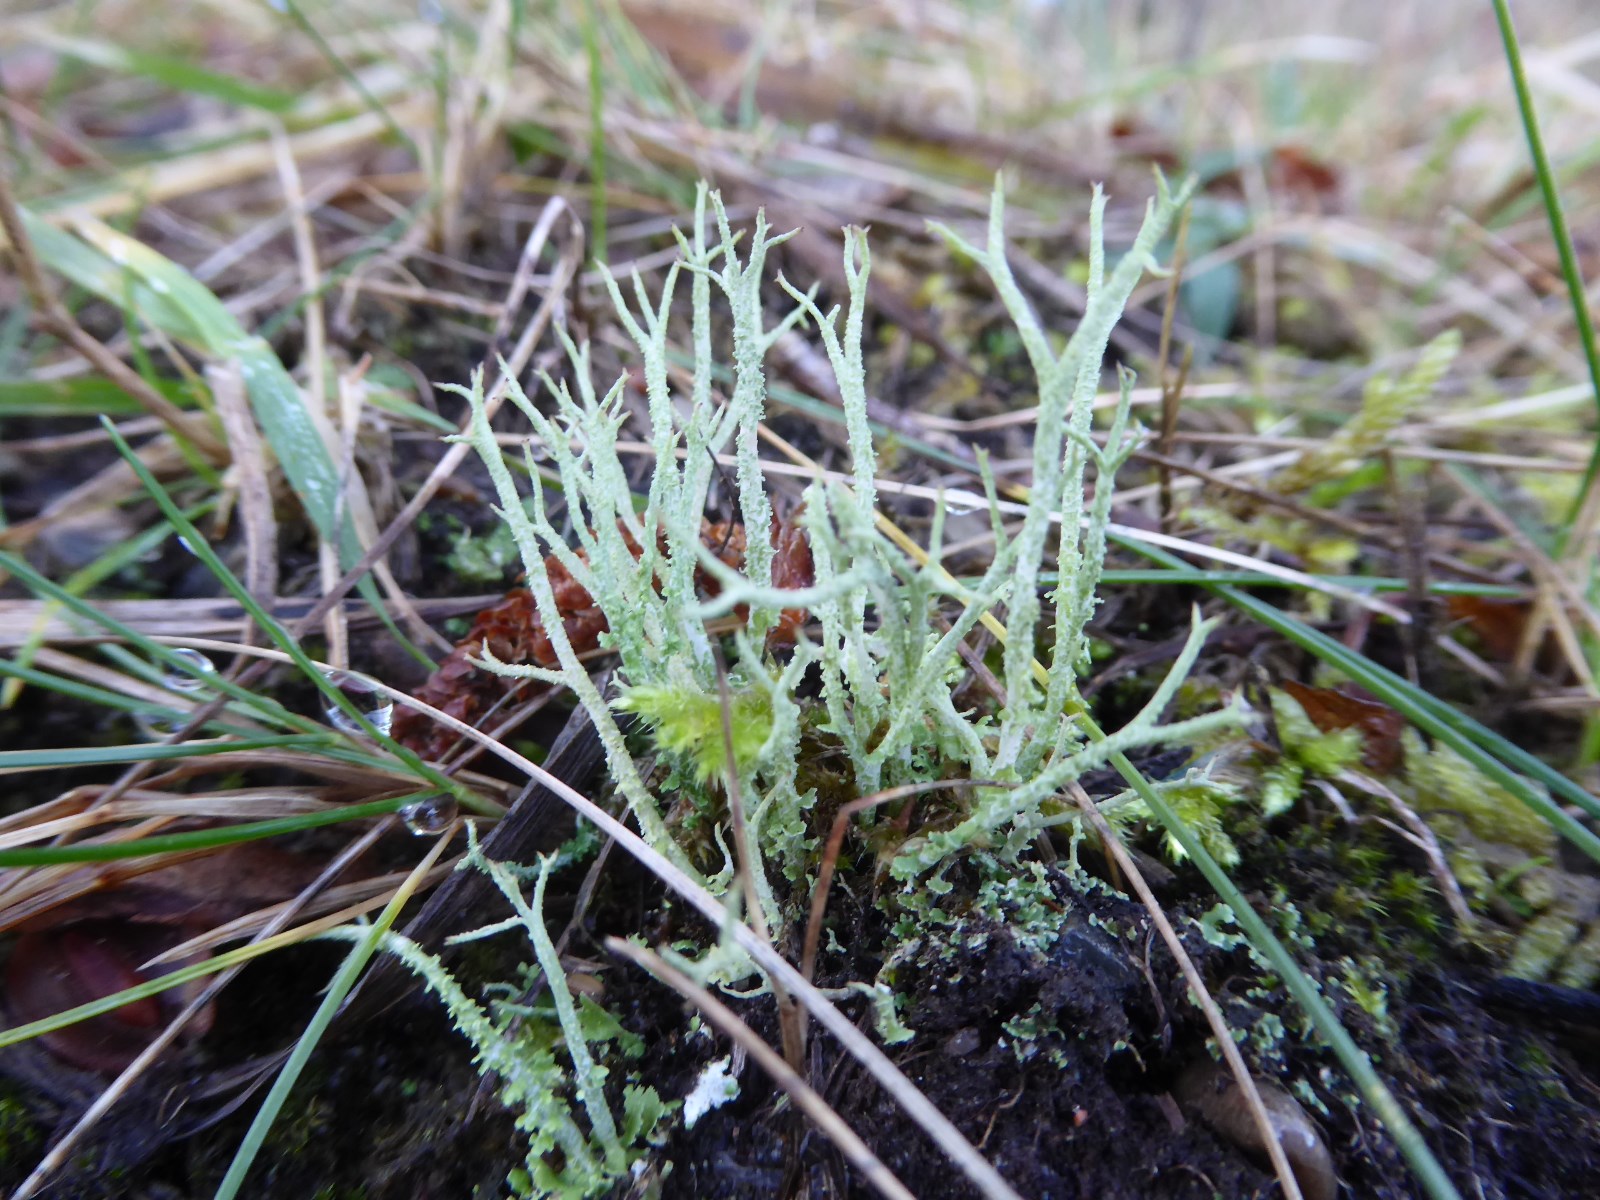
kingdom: Fungi
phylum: Ascomycota
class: Lecanoromycetes
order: Lecanorales
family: Cladoniaceae
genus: Cladonia
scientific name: Cladonia scabriuscula
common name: ru bægerlav
